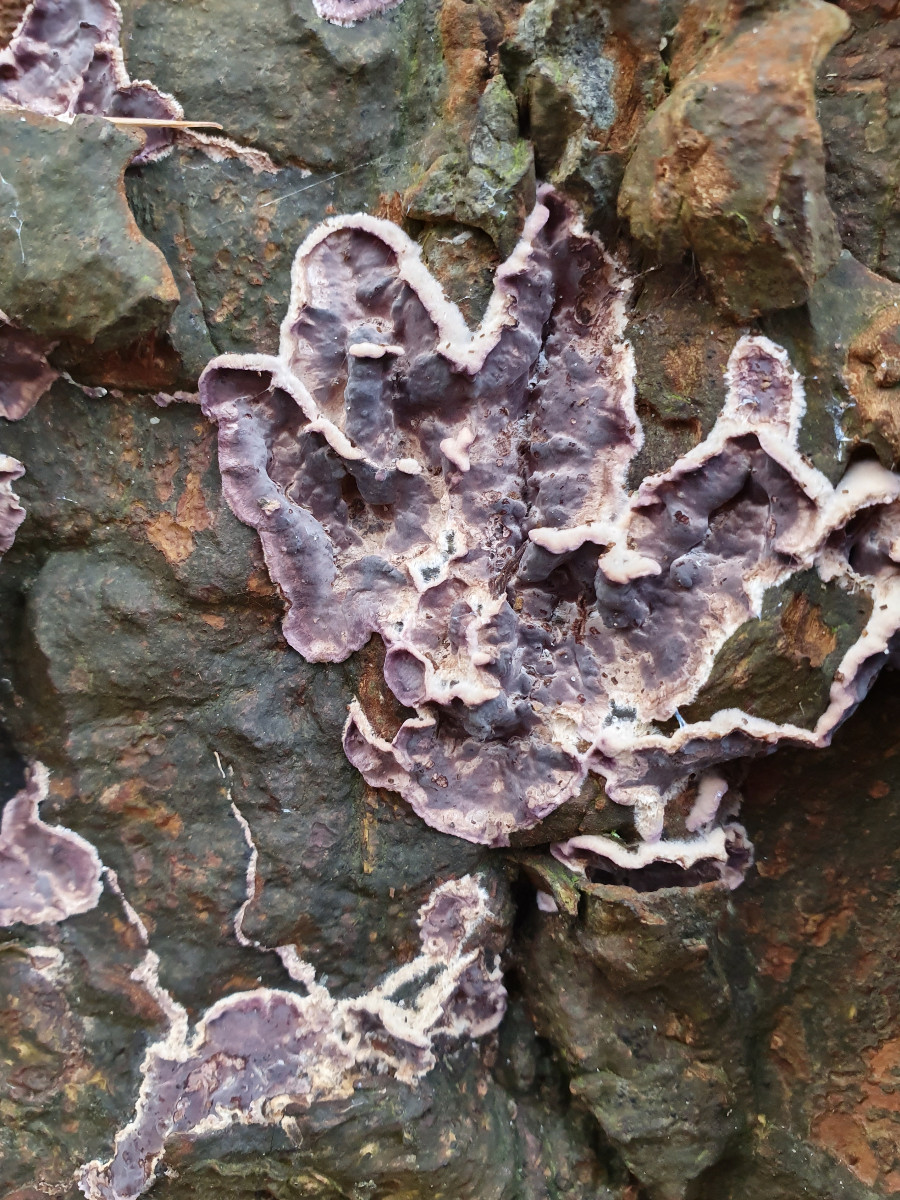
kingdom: Fungi
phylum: Basidiomycota
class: Agaricomycetes
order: Agaricales
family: Cyphellaceae
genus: Chondrostereum
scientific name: Chondrostereum purpureum
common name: purpurlædersvamp
